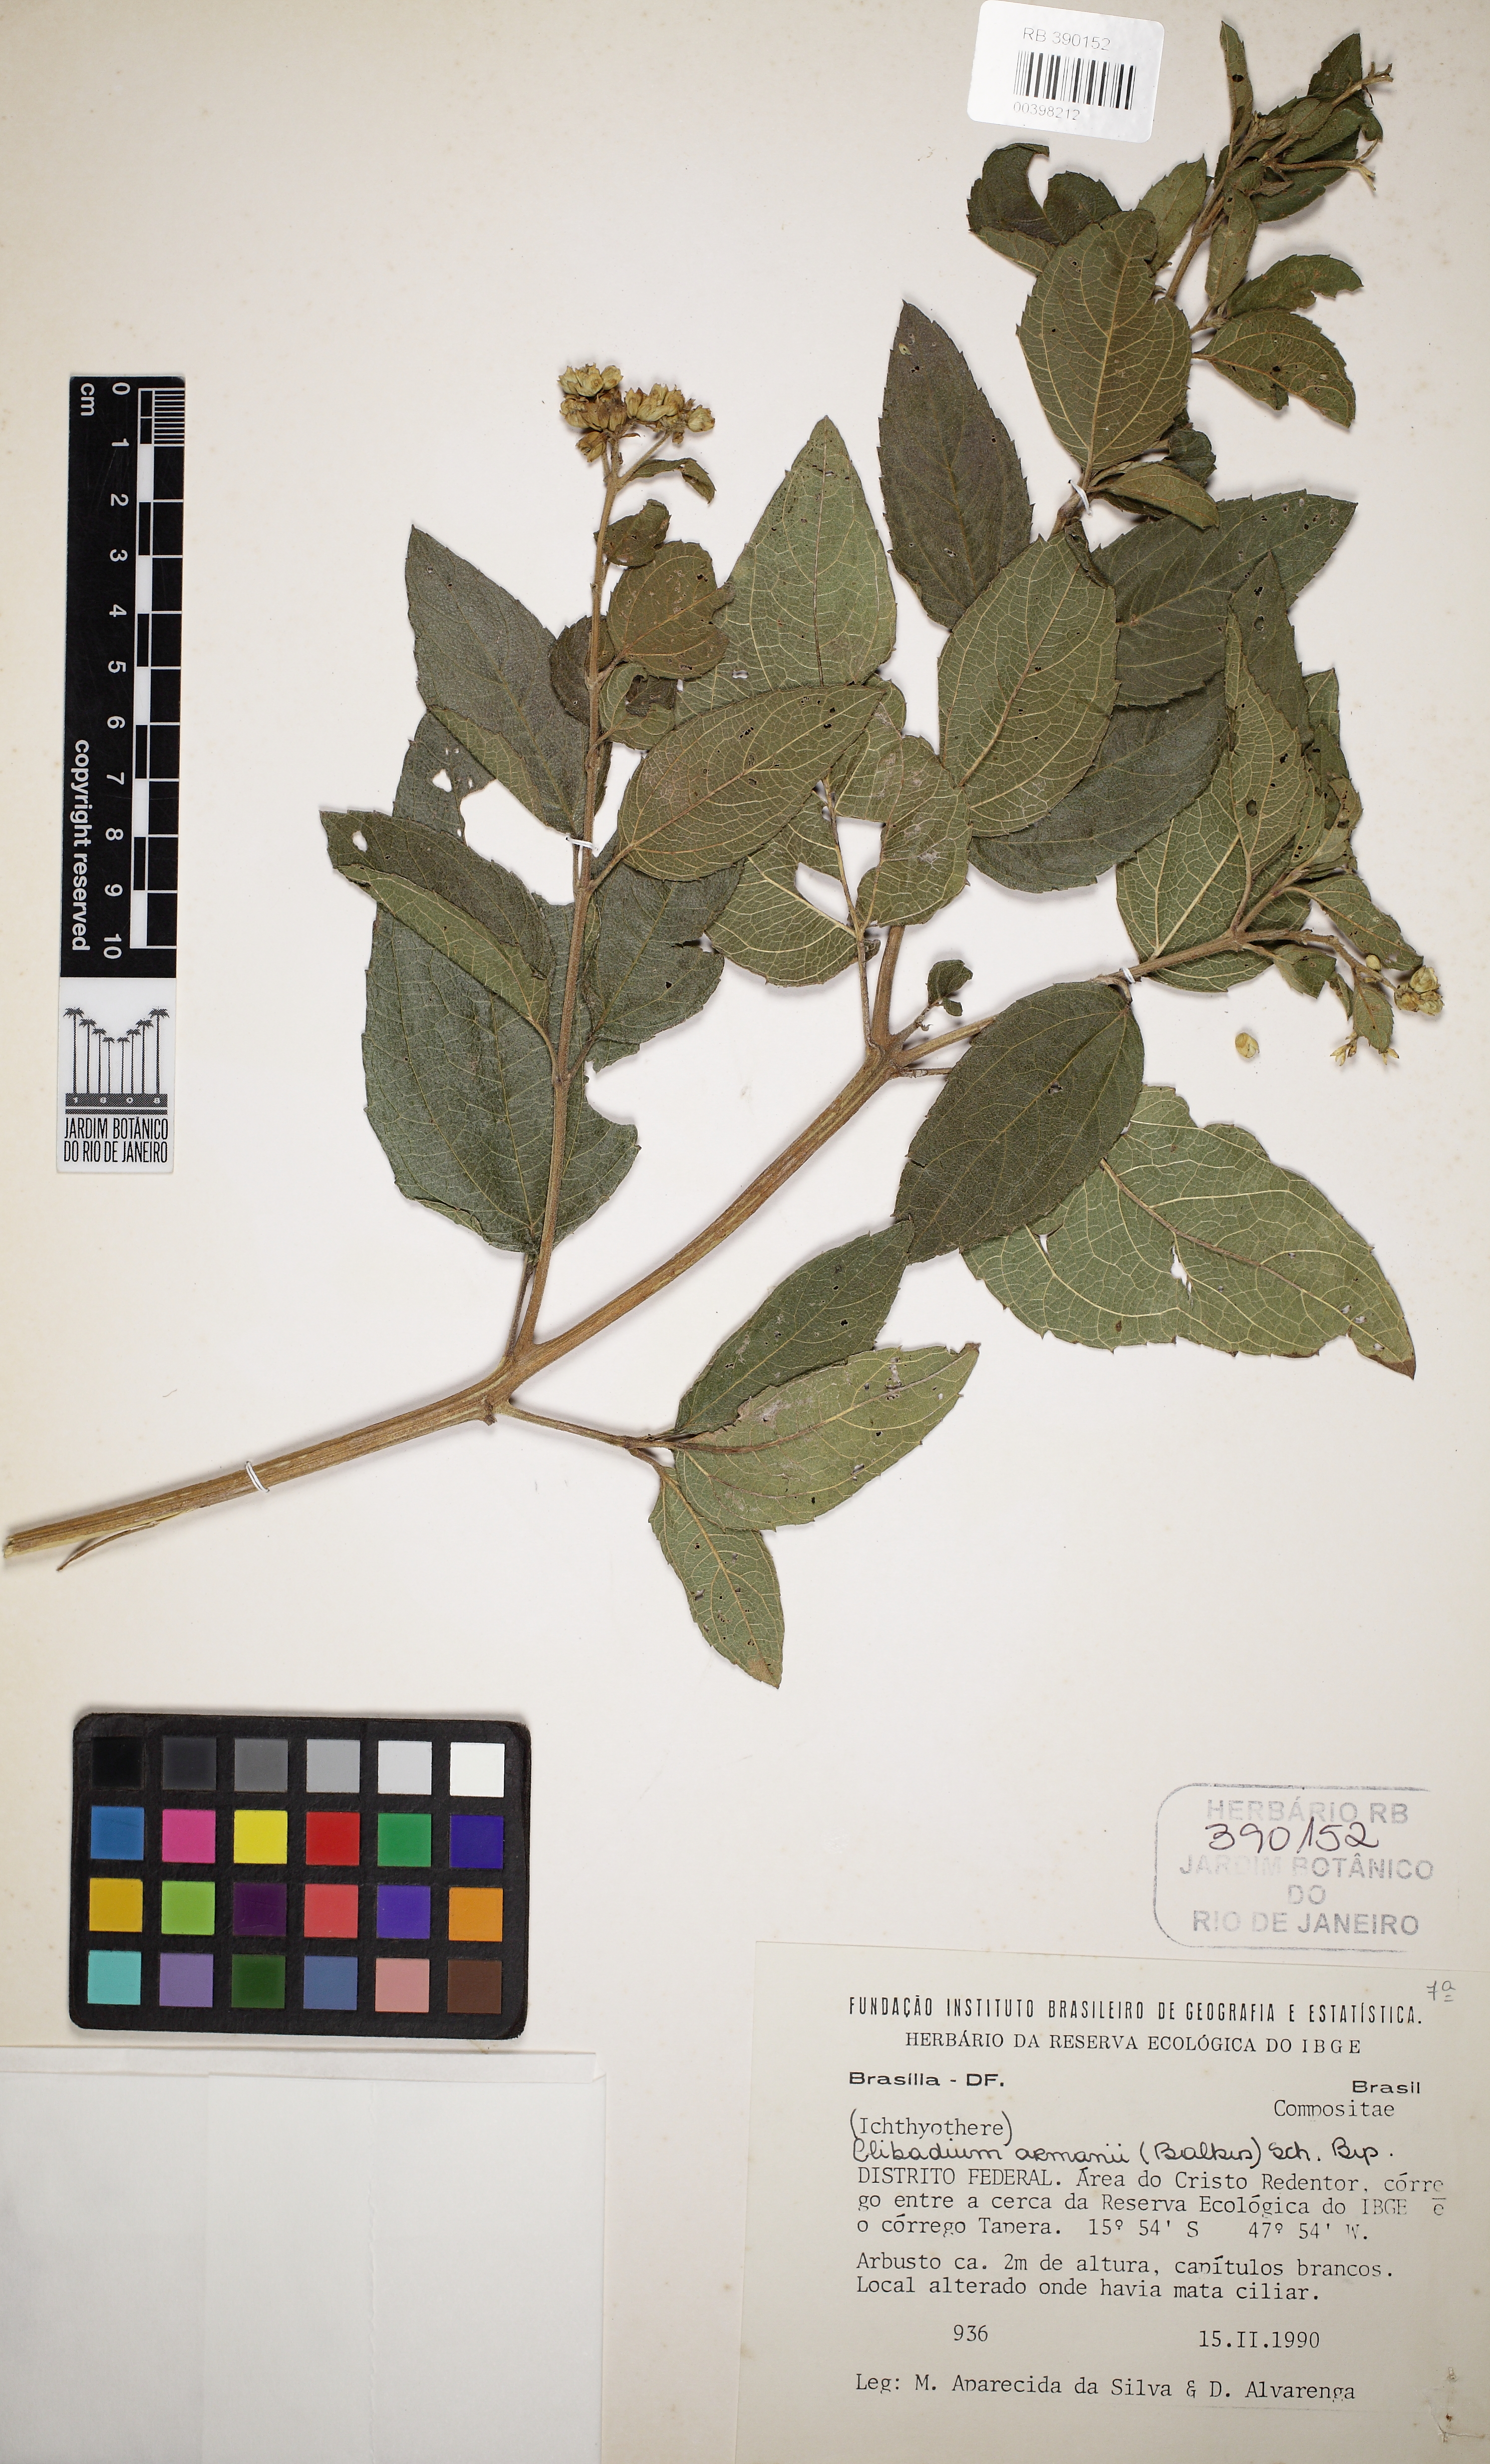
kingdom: Plantae
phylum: Tracheophyta
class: Magnoliopsida
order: Asterales
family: Asteraceae
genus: Clibadium
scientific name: Clibadium armanii
